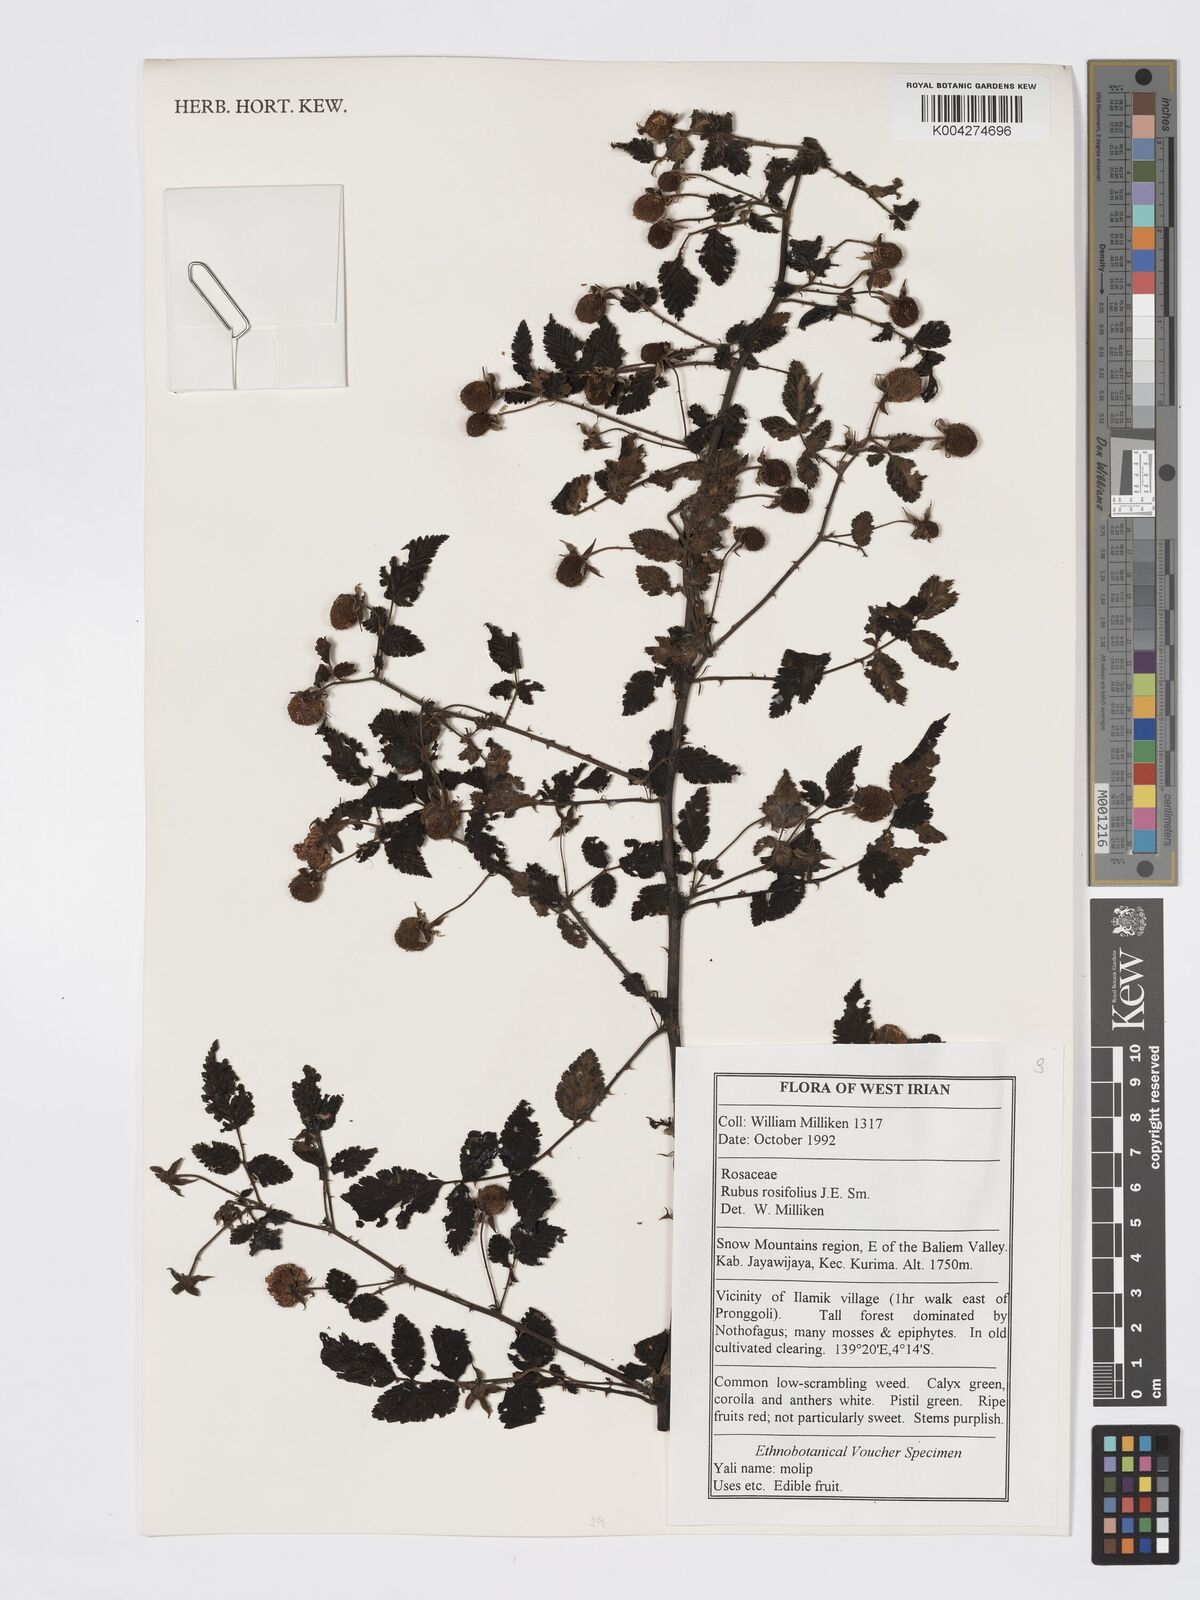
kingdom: Plantae
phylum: Tracheophyta
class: Magnoliopsida
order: Rosales
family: Rosaceae
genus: Rubus
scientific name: Rubus
